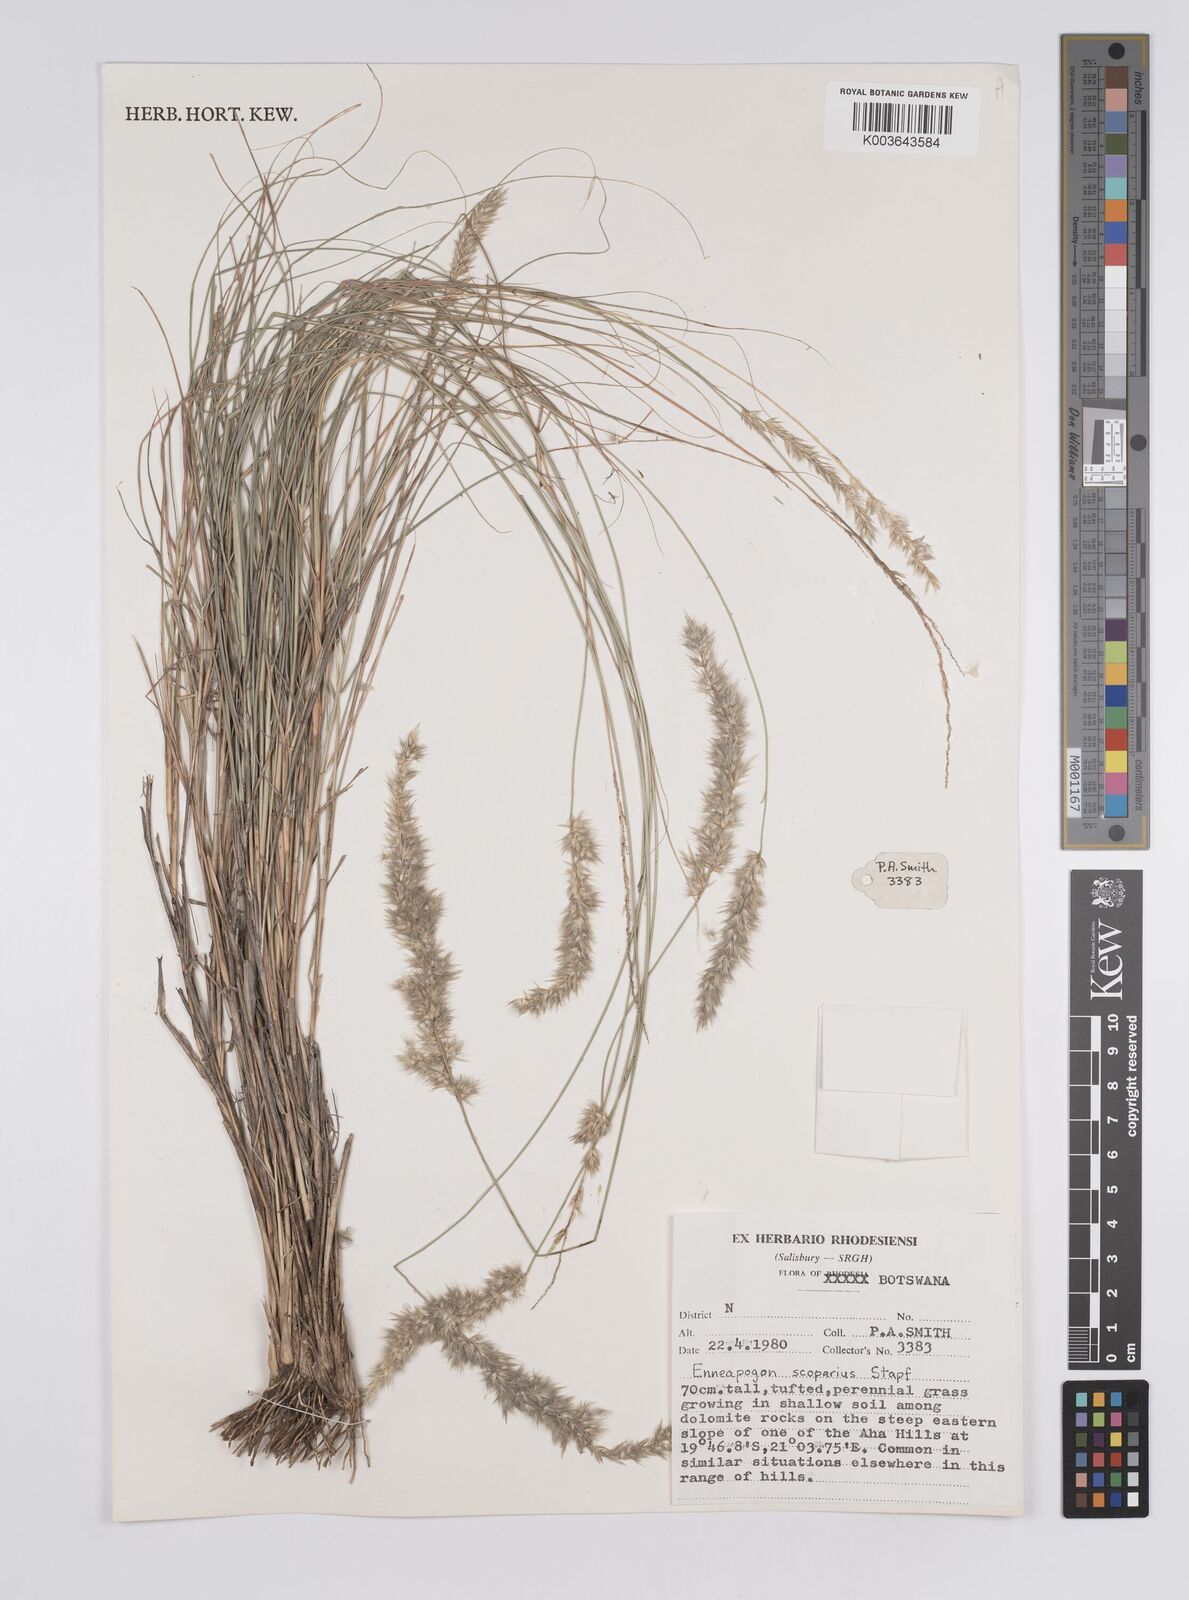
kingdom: Plantae
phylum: Tracheophyta
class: Liliopsida
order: Poales
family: Poaceae
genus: Enneapogon
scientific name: Enneapogon scoparius
